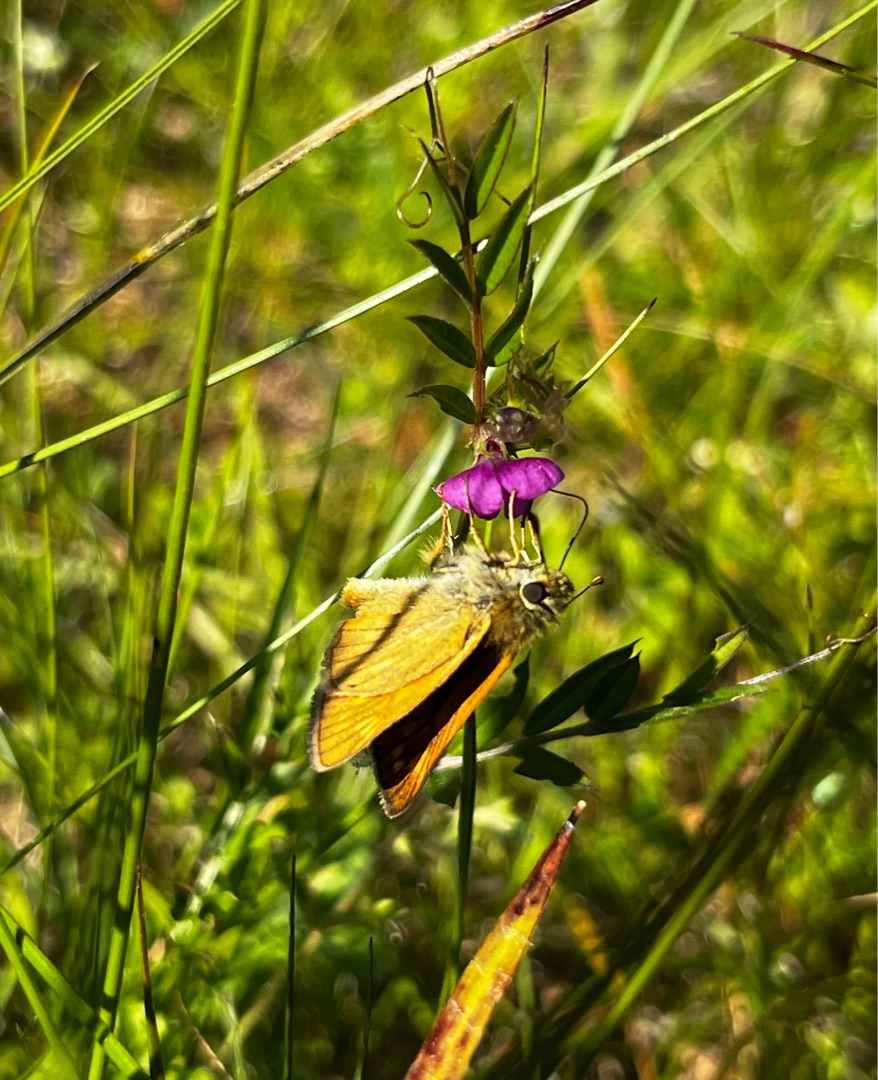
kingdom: Animalia
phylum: Arthropoda
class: Insecta
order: Lepidoptera
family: Hesperiidae
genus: Ochlodes
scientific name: Ochlodes venata
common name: Stor bredpande
